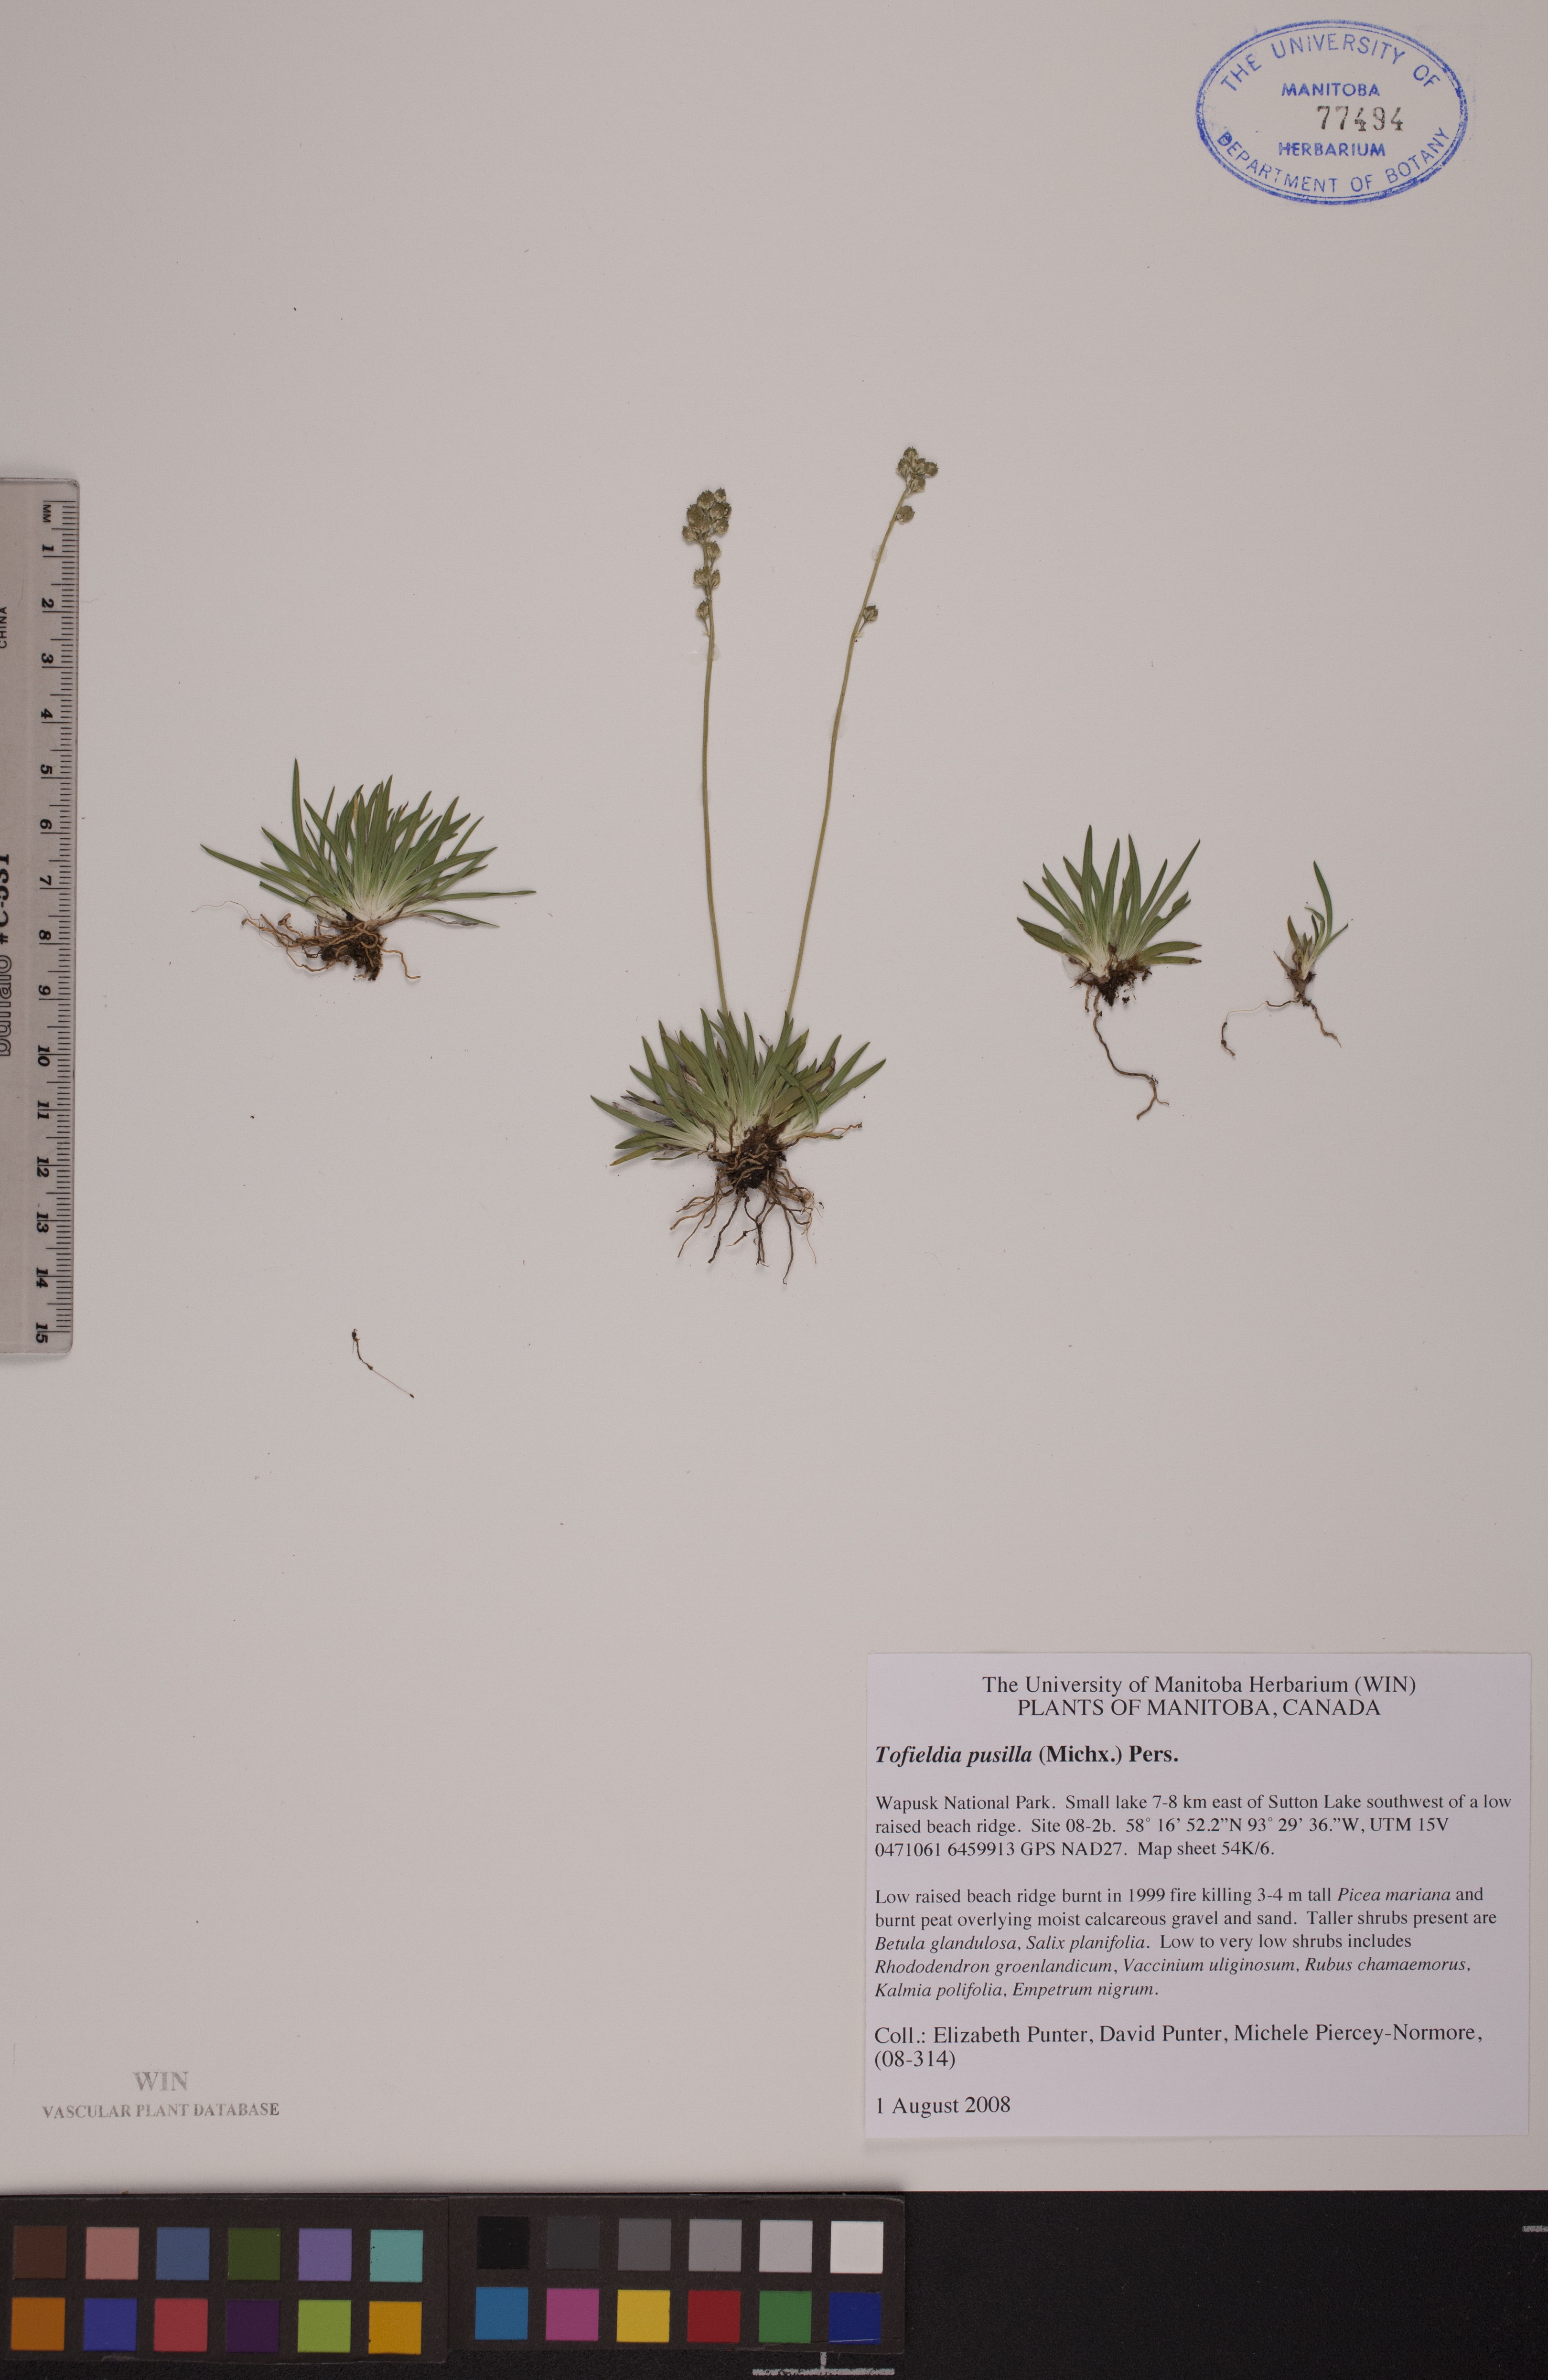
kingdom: Plantae
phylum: Tracheophyta
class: Liliopsida
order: Alismatales
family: Tofieldiaceae
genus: Tofieldia
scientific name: Tofieldia pusilla
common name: Scottish false asphodel
